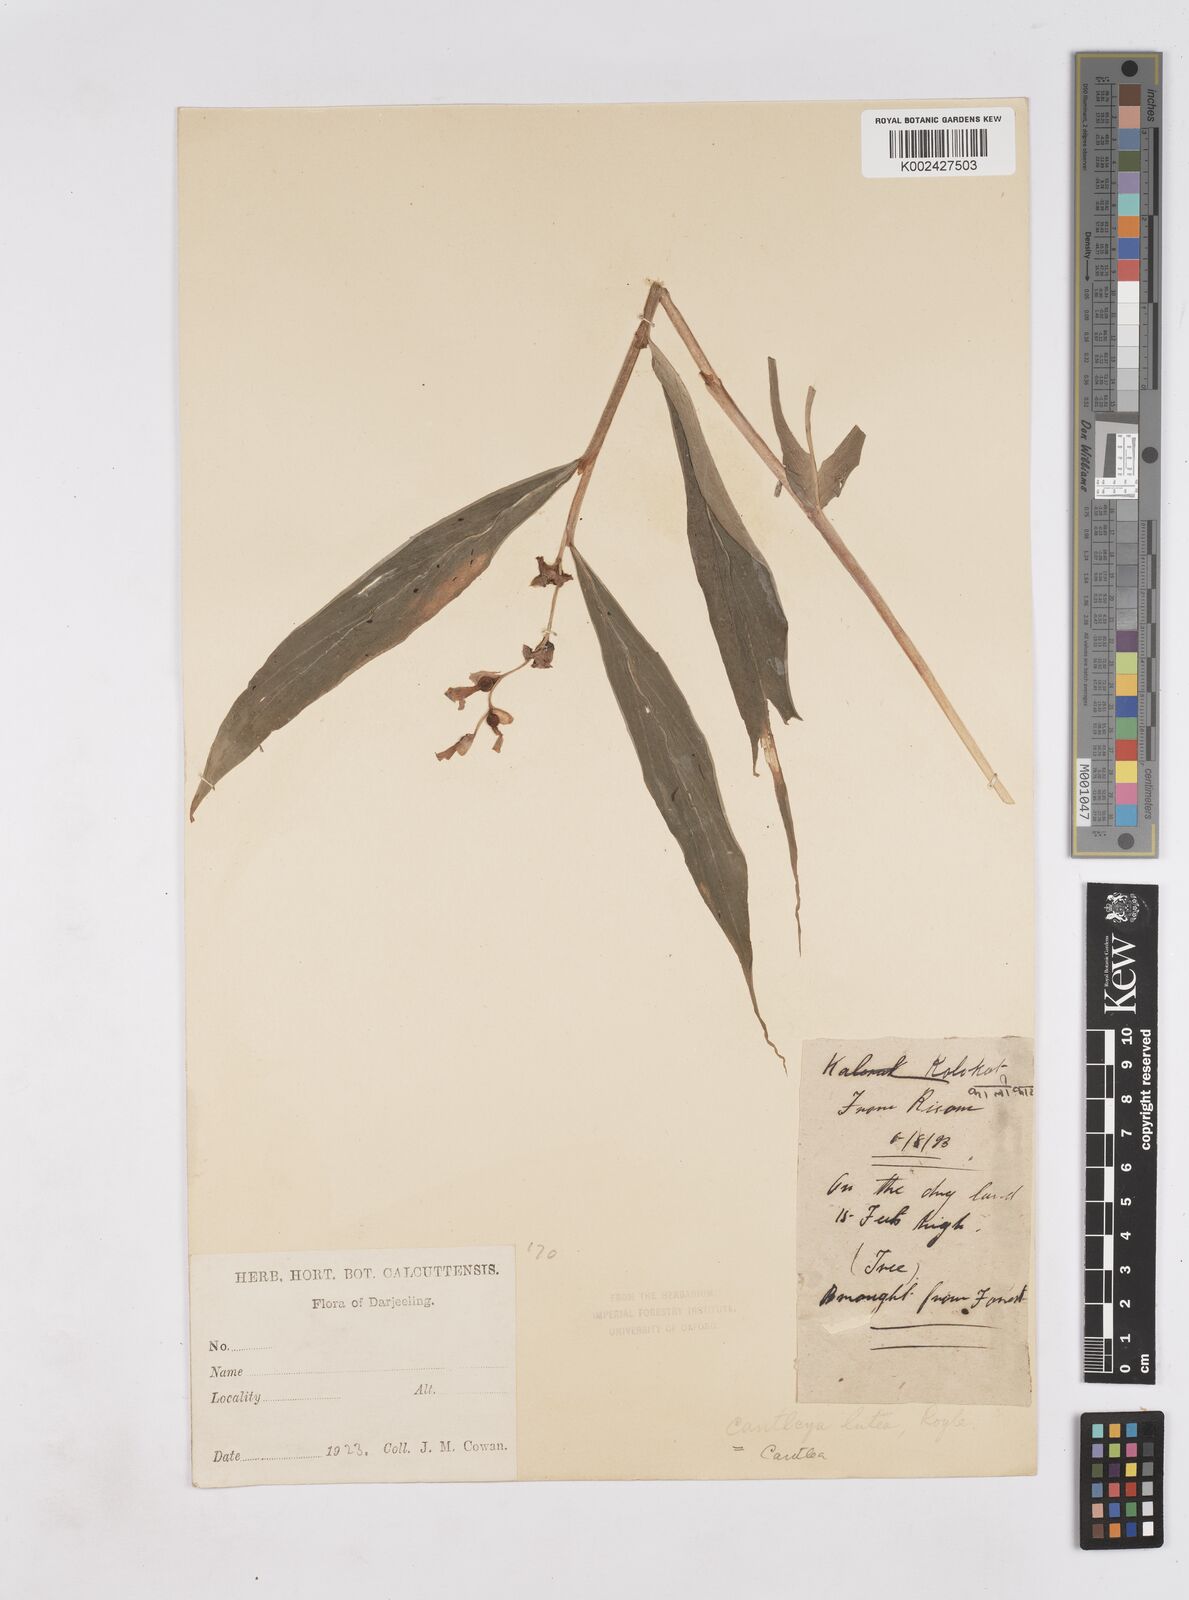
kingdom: Plantae
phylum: Tracheophyta
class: Liliopsida
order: Zingiberales
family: Zingiberaceae
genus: Cautleya
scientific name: Cautleya gracilis
